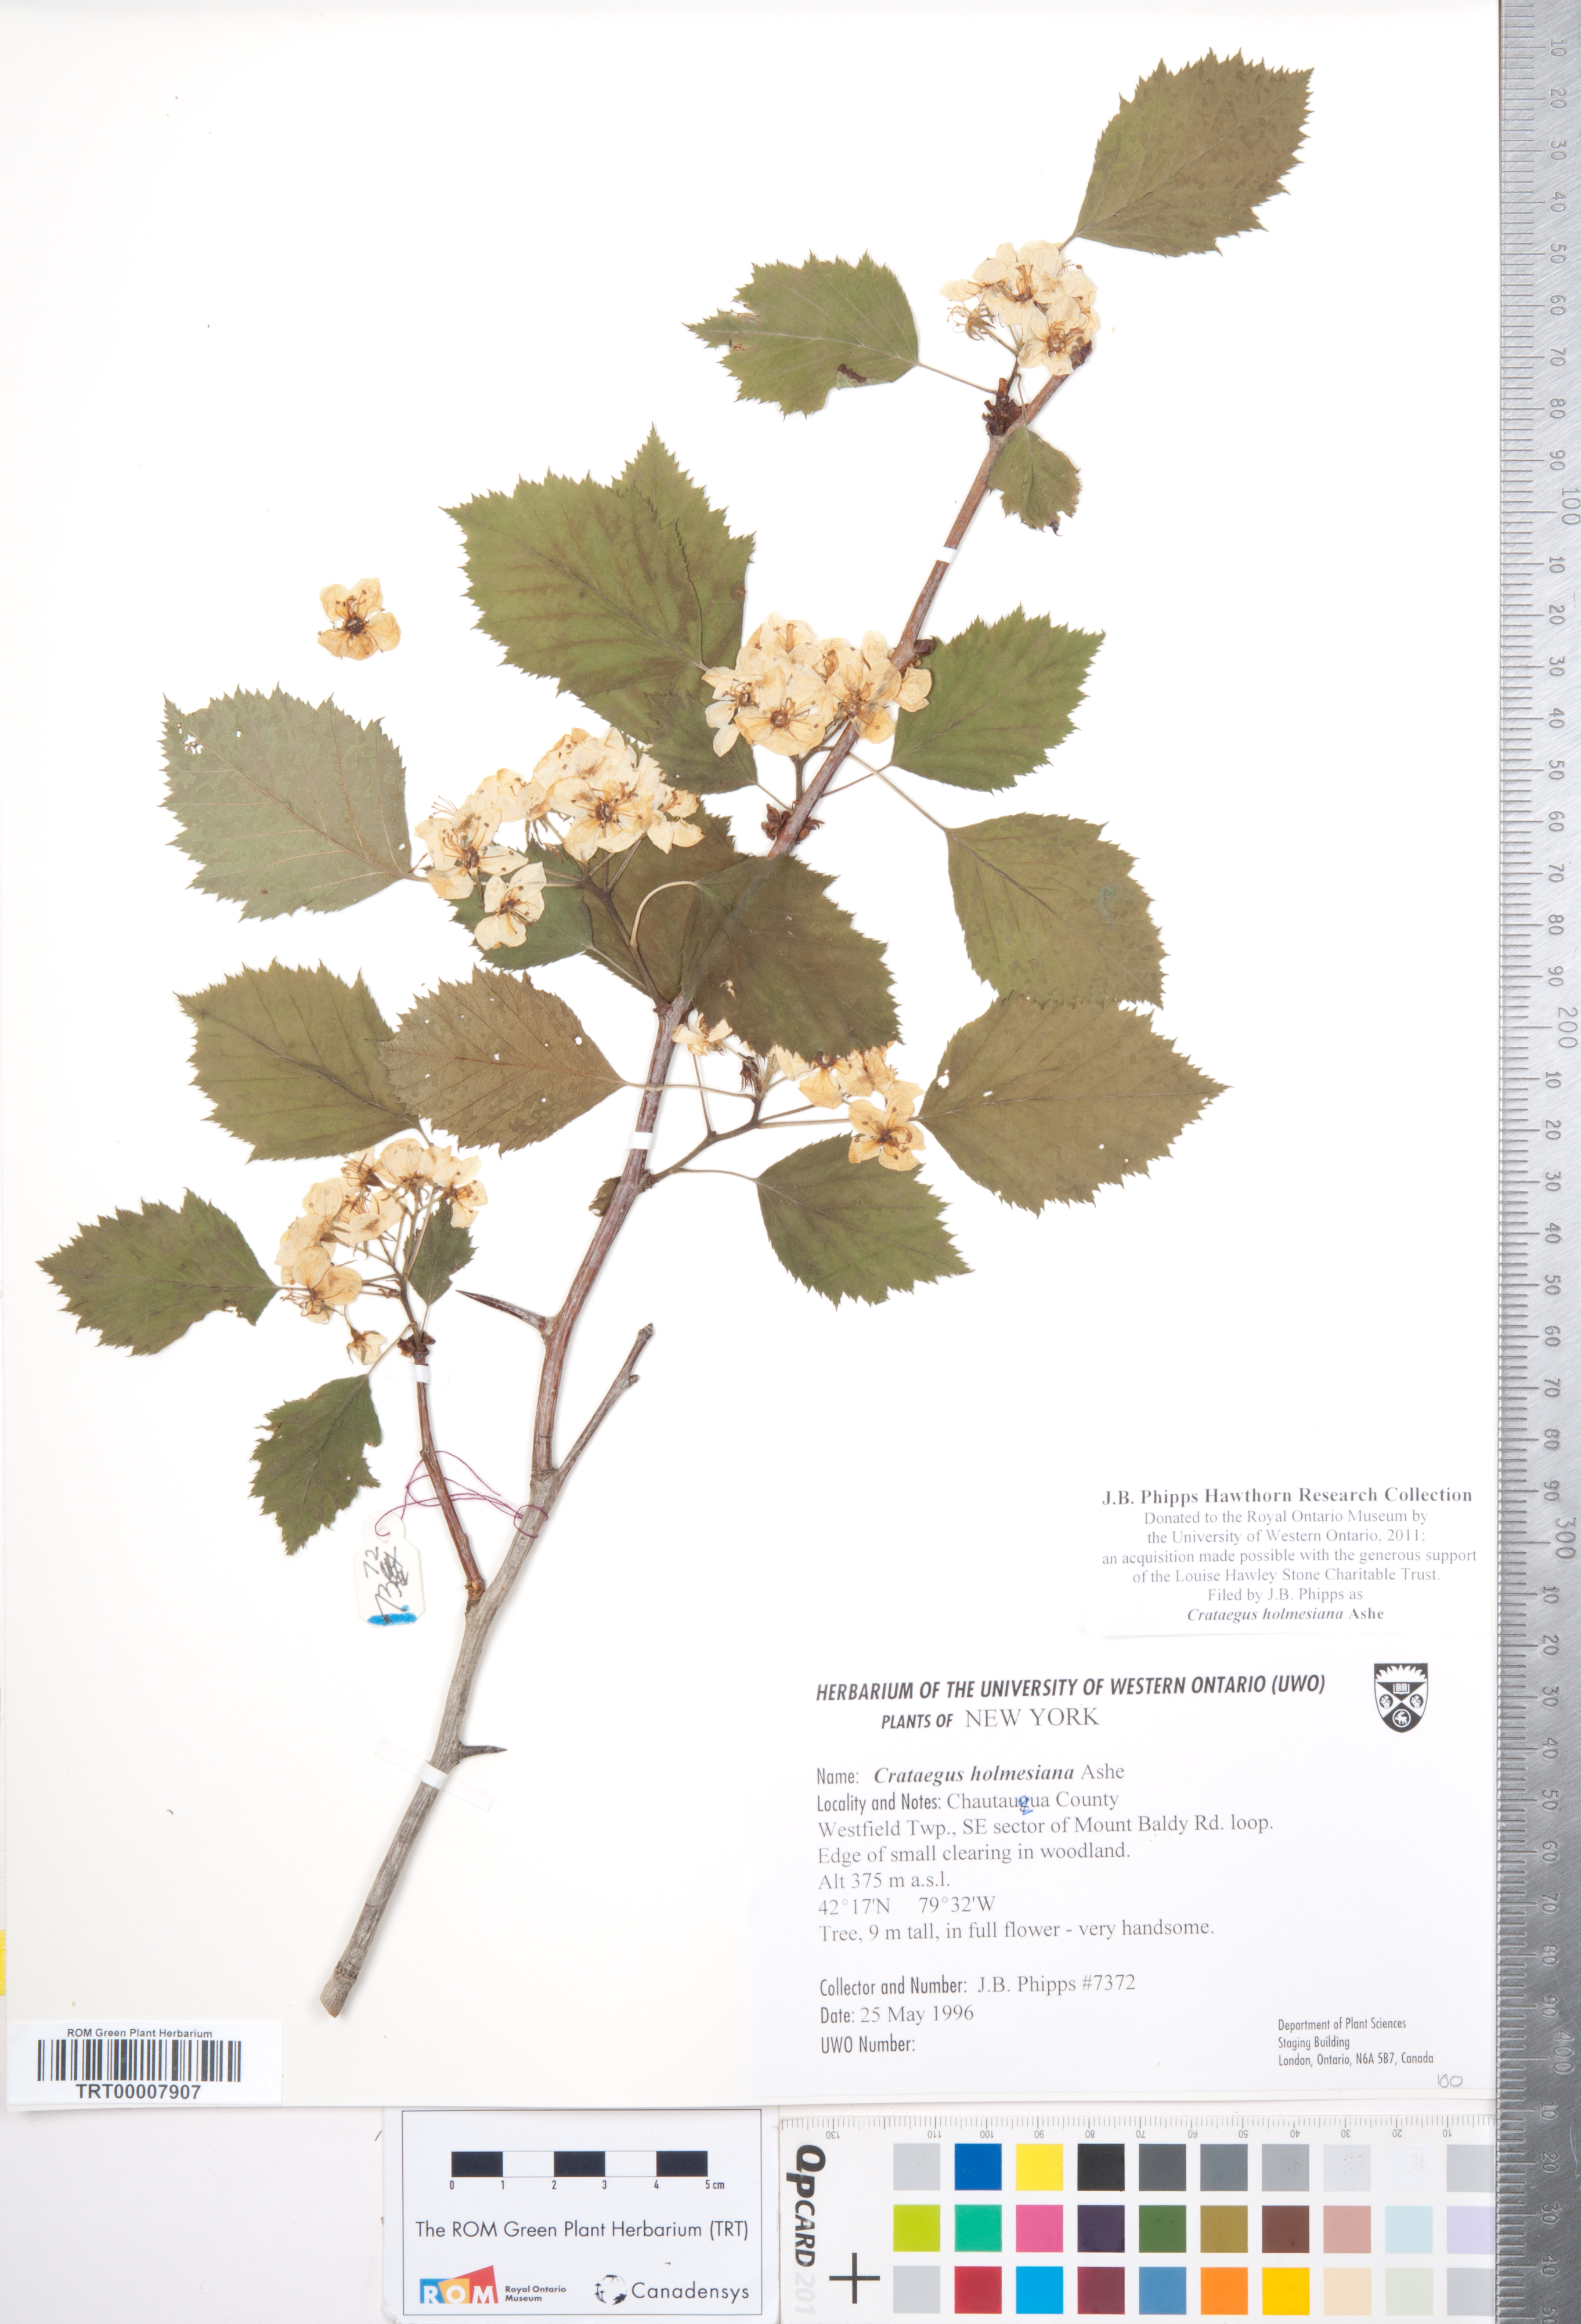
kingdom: Plantae
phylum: Tracheophyta
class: Magnoliopsida
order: Rosales
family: Rosaceae
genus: Crataegus
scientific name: Crataegus holmesiana
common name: Holmes' hawthorn
